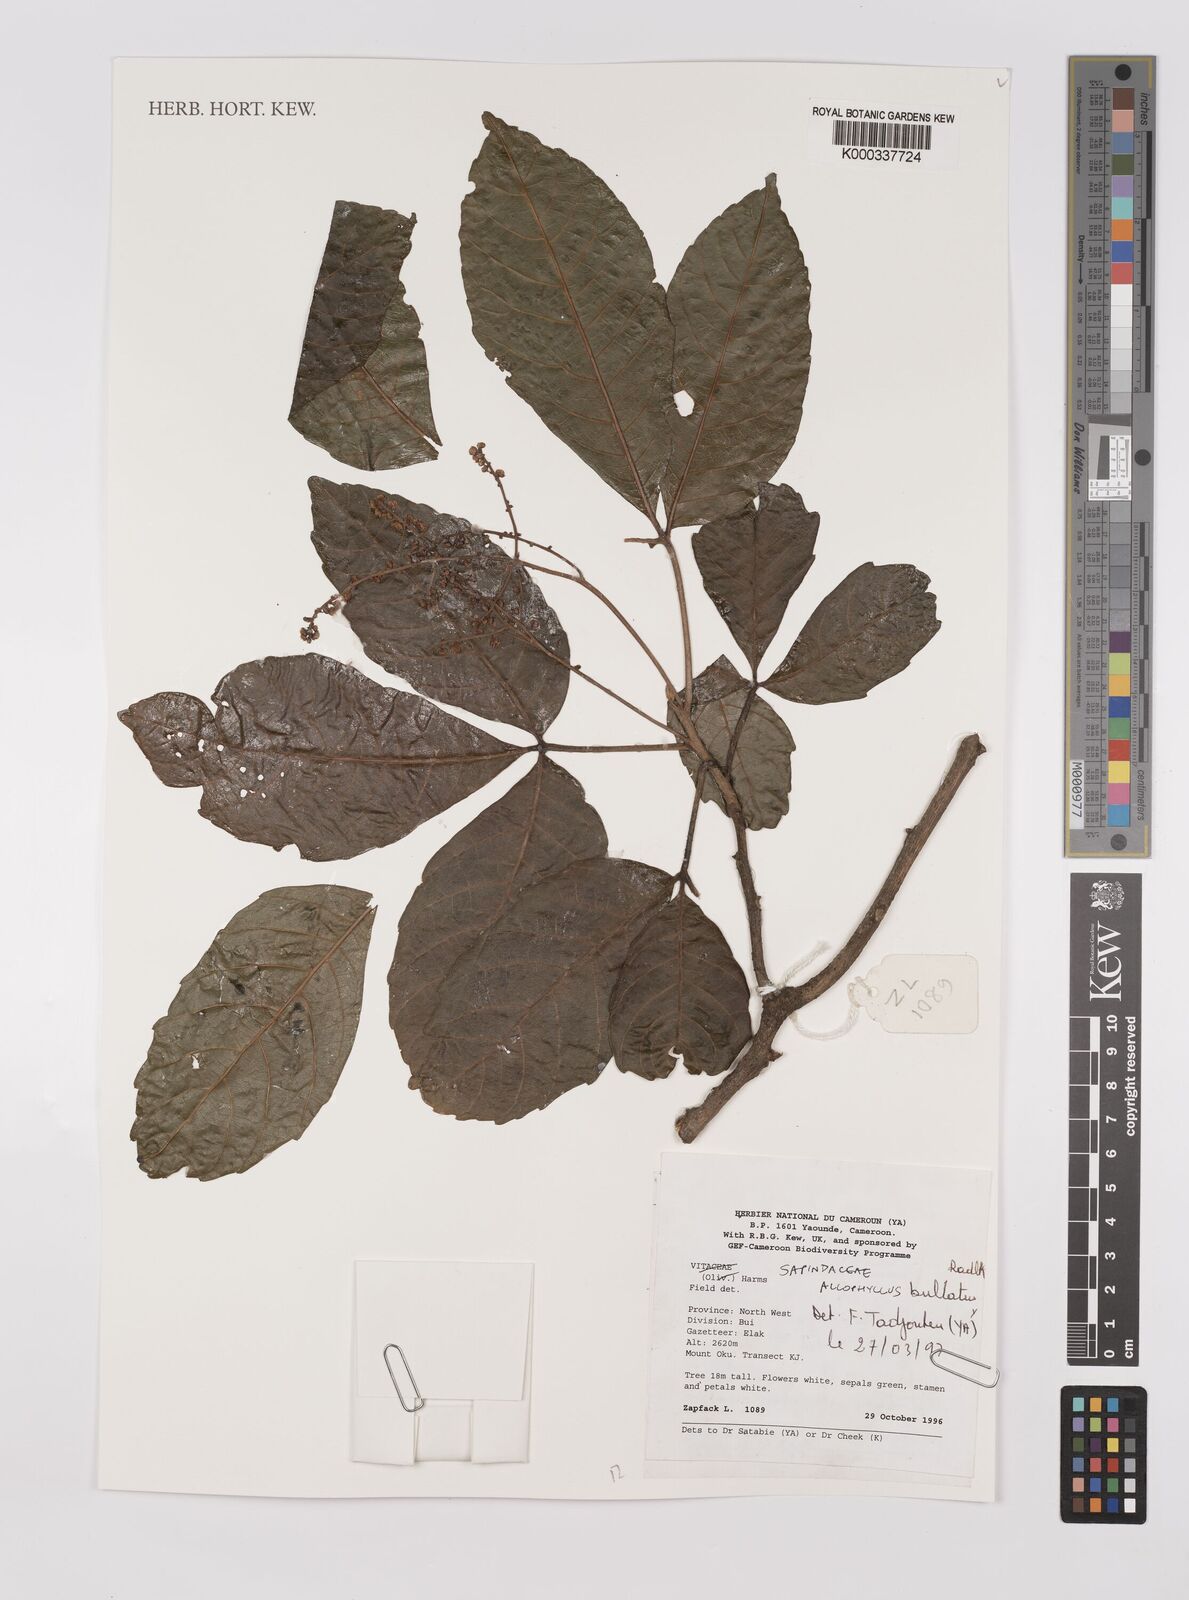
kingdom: Plantae
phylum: Tracheophyta
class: Magnoliopsida
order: Sapindales
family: Sapindaceae
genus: Allophylus
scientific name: Allophylus bullatus
